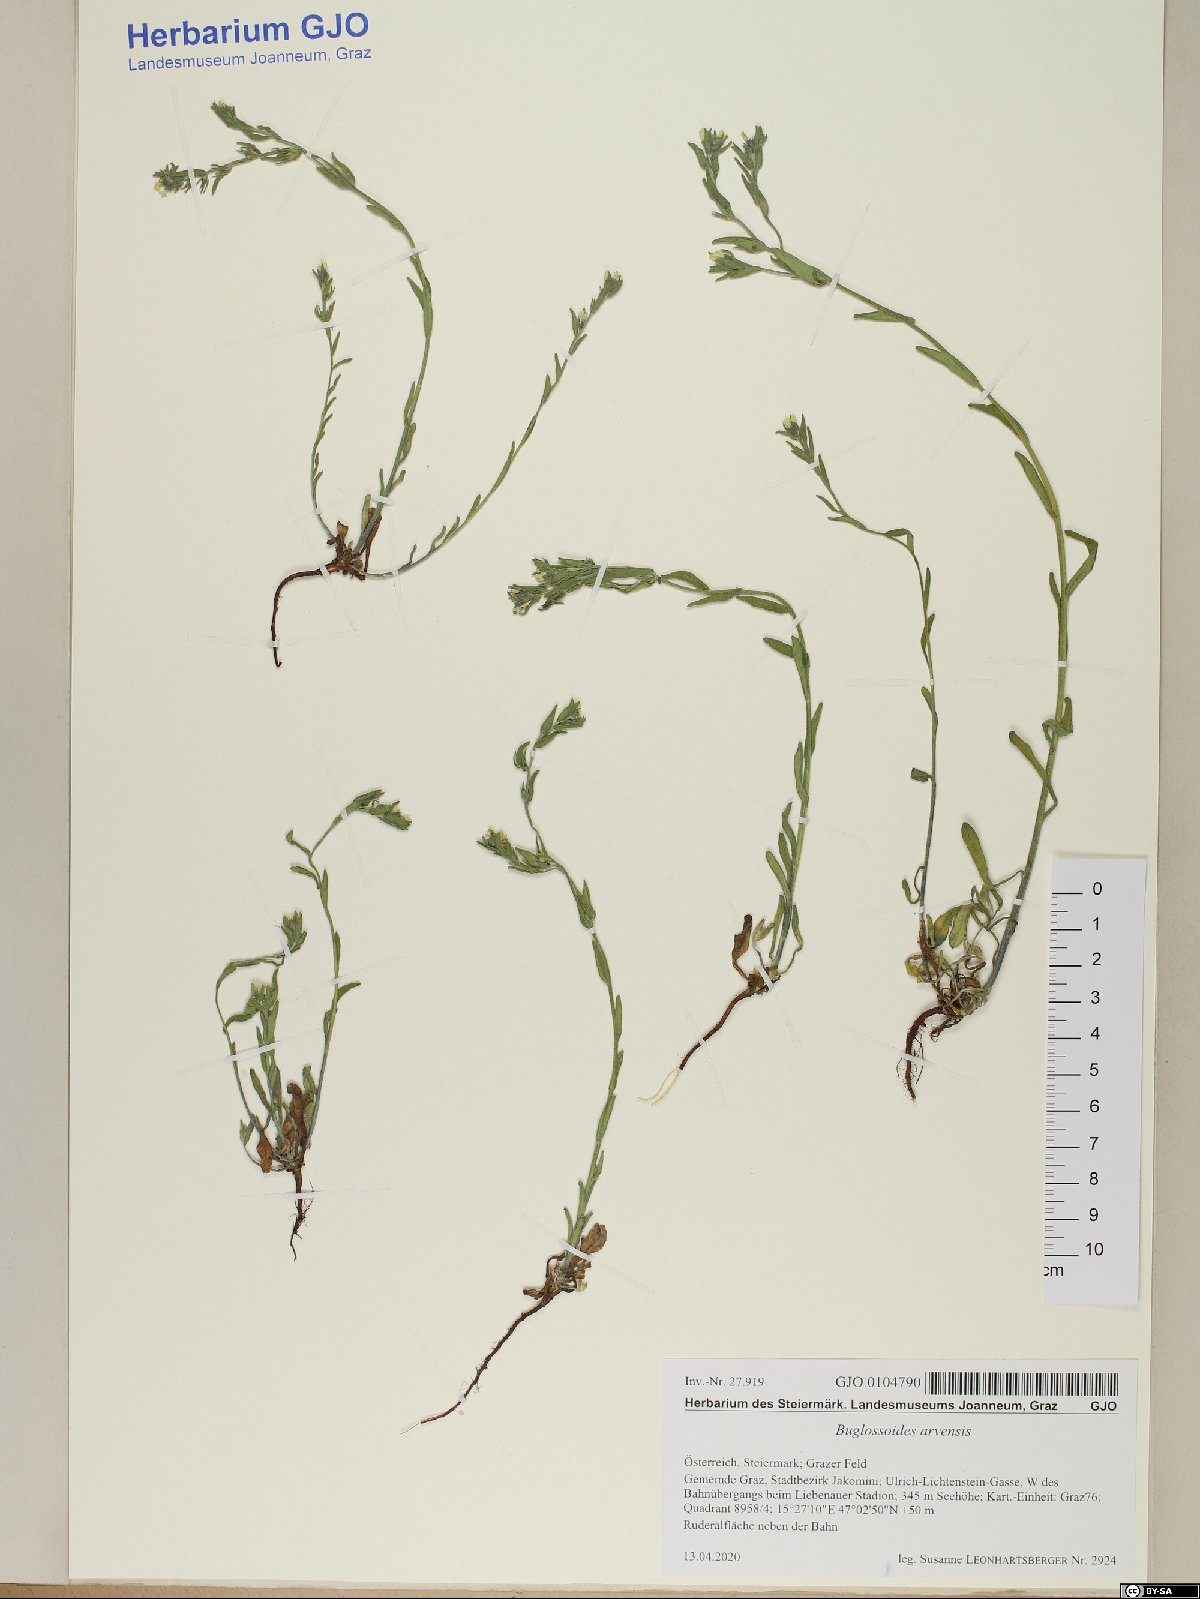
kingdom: Plantae
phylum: Tracheophyta
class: Magnoliopsida
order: Boraginales
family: Boraginaceae
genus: Buglossoides
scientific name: Buglossoides arvensis
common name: Corn gromwell
